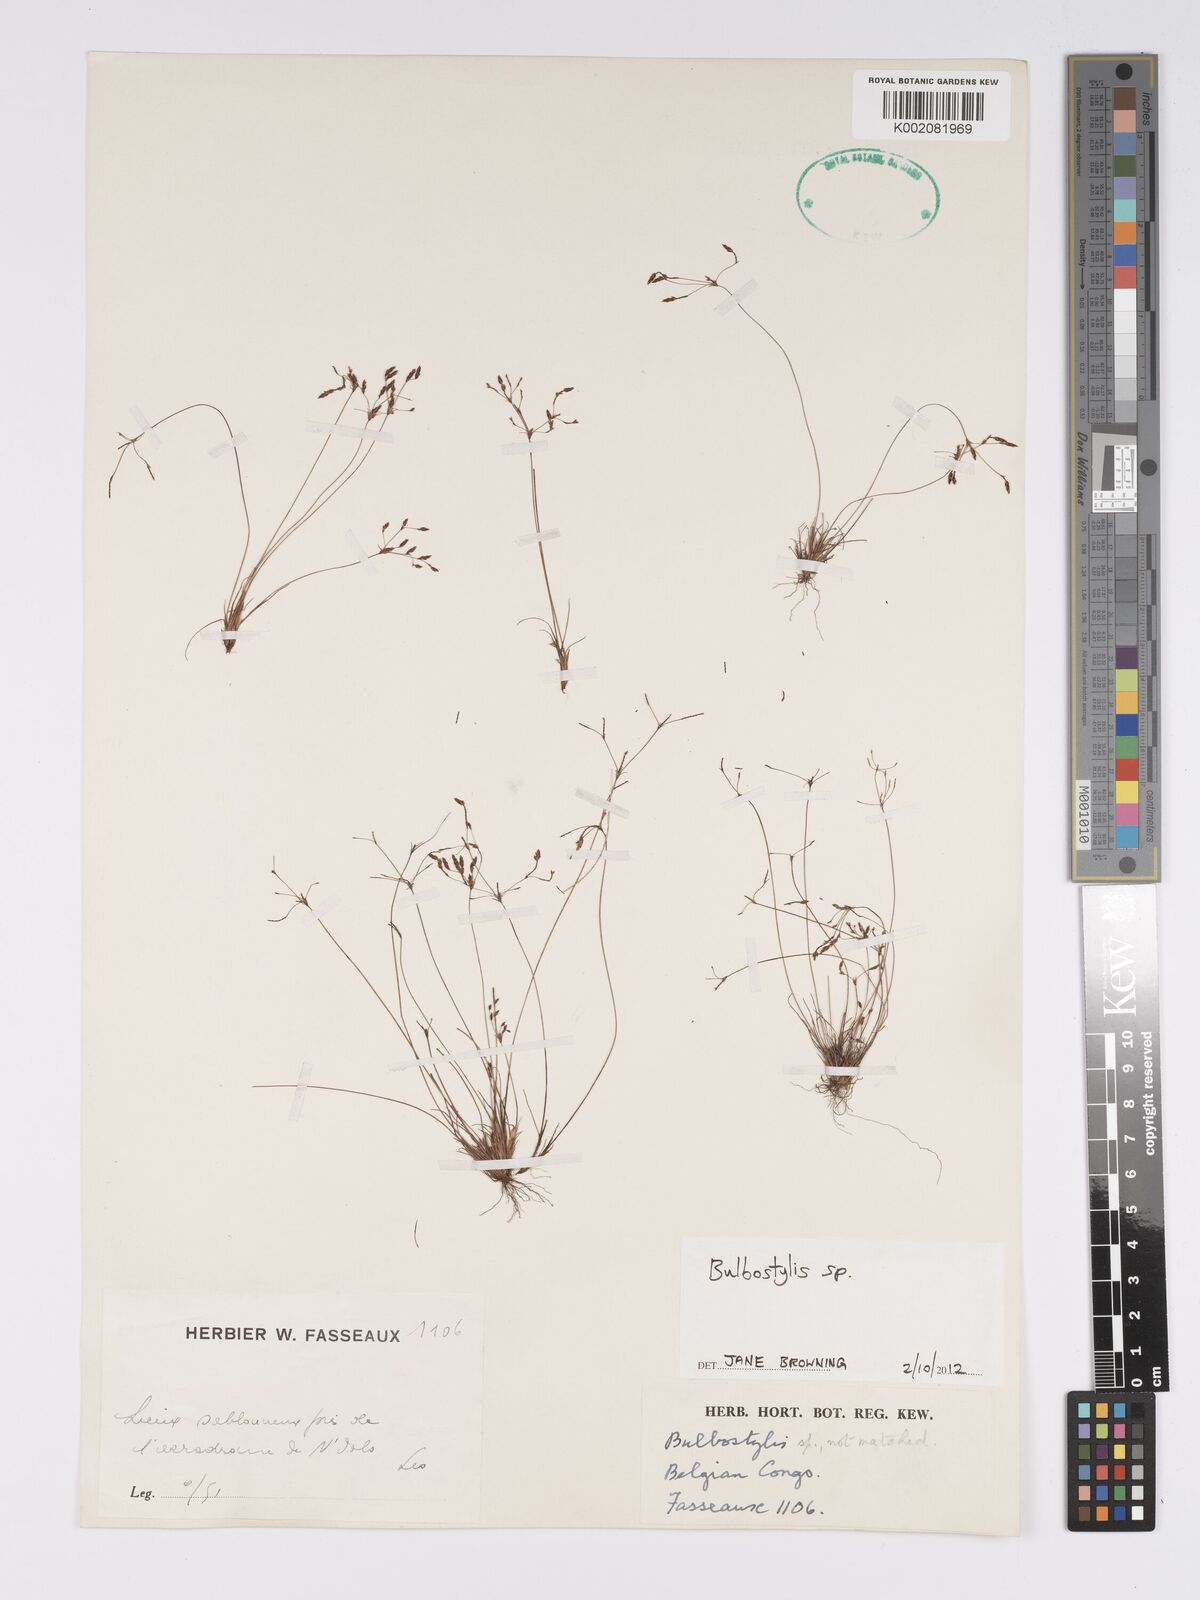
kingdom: Plantae
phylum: Tracheophyta
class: Magnoliopsida
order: Asterales
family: Asteraceae
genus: Bulbostylis
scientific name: Bulbostylis
